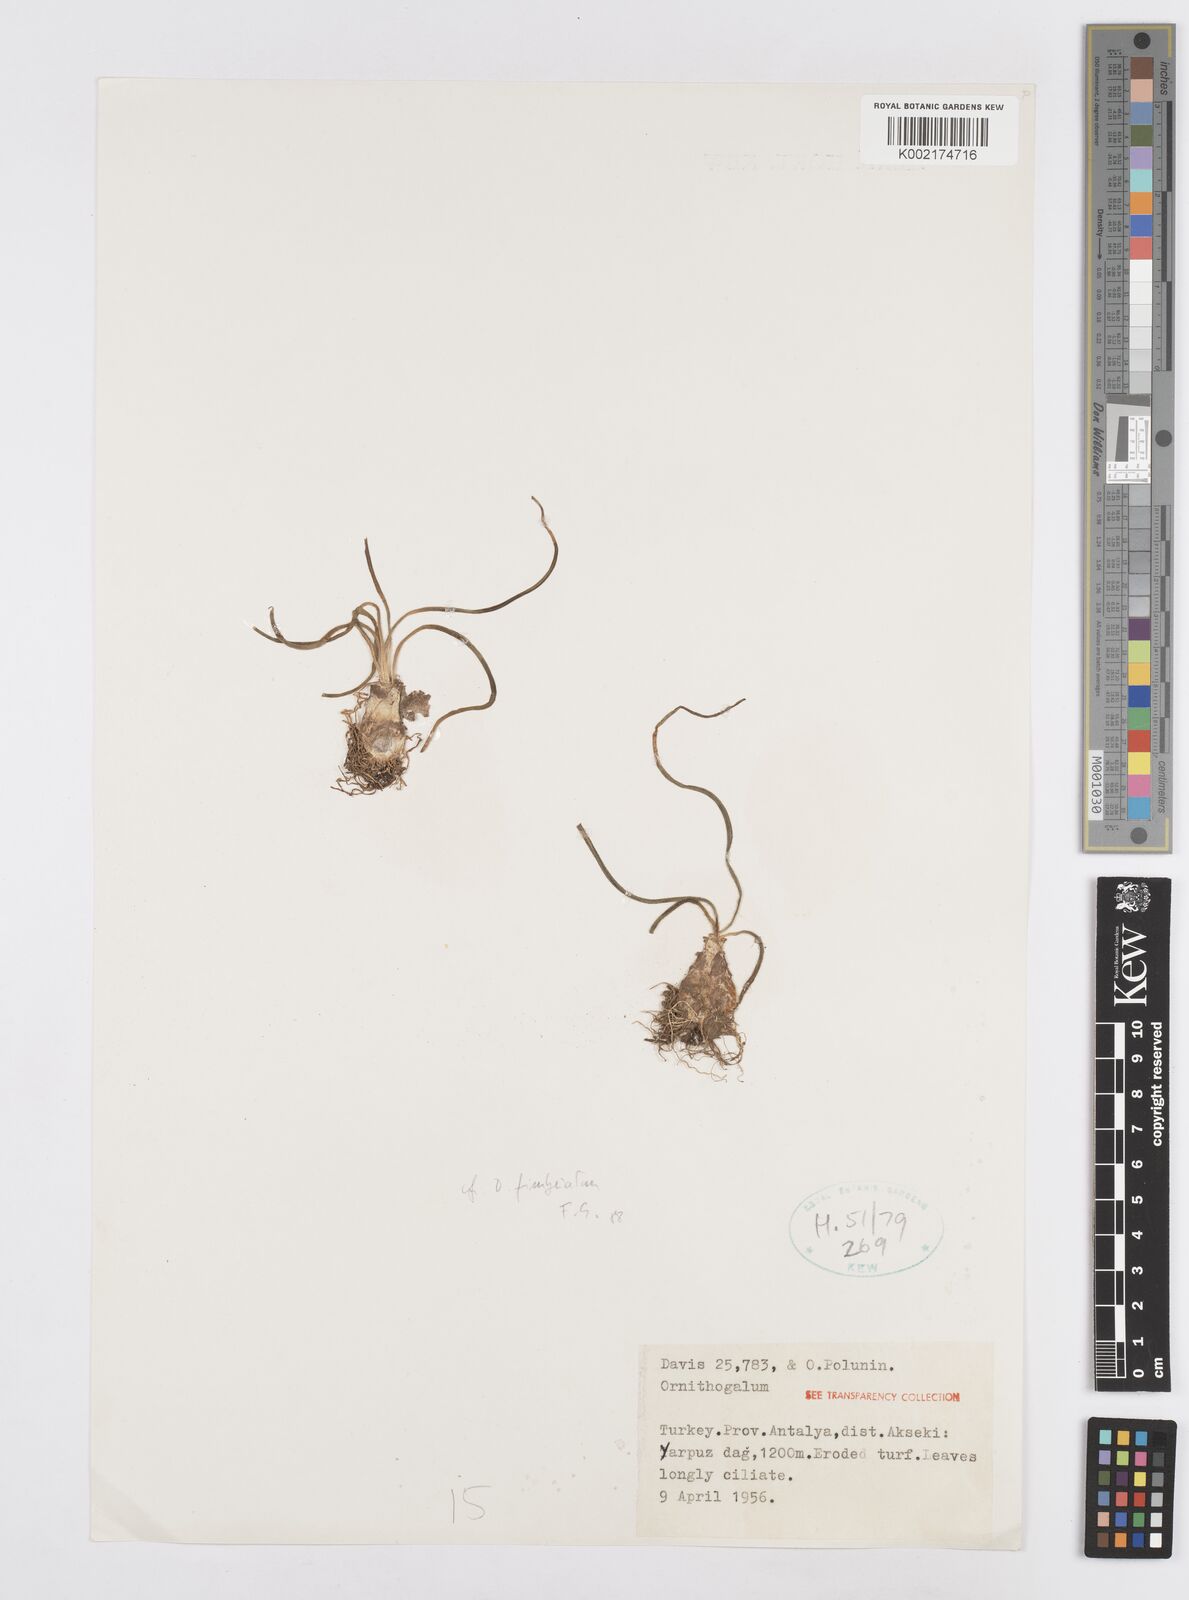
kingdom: Plantae
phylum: Tracheophyta
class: Liliopsida
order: Asparagales
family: Asparagaceae
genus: Ornithogalum
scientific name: Ornithogalum
